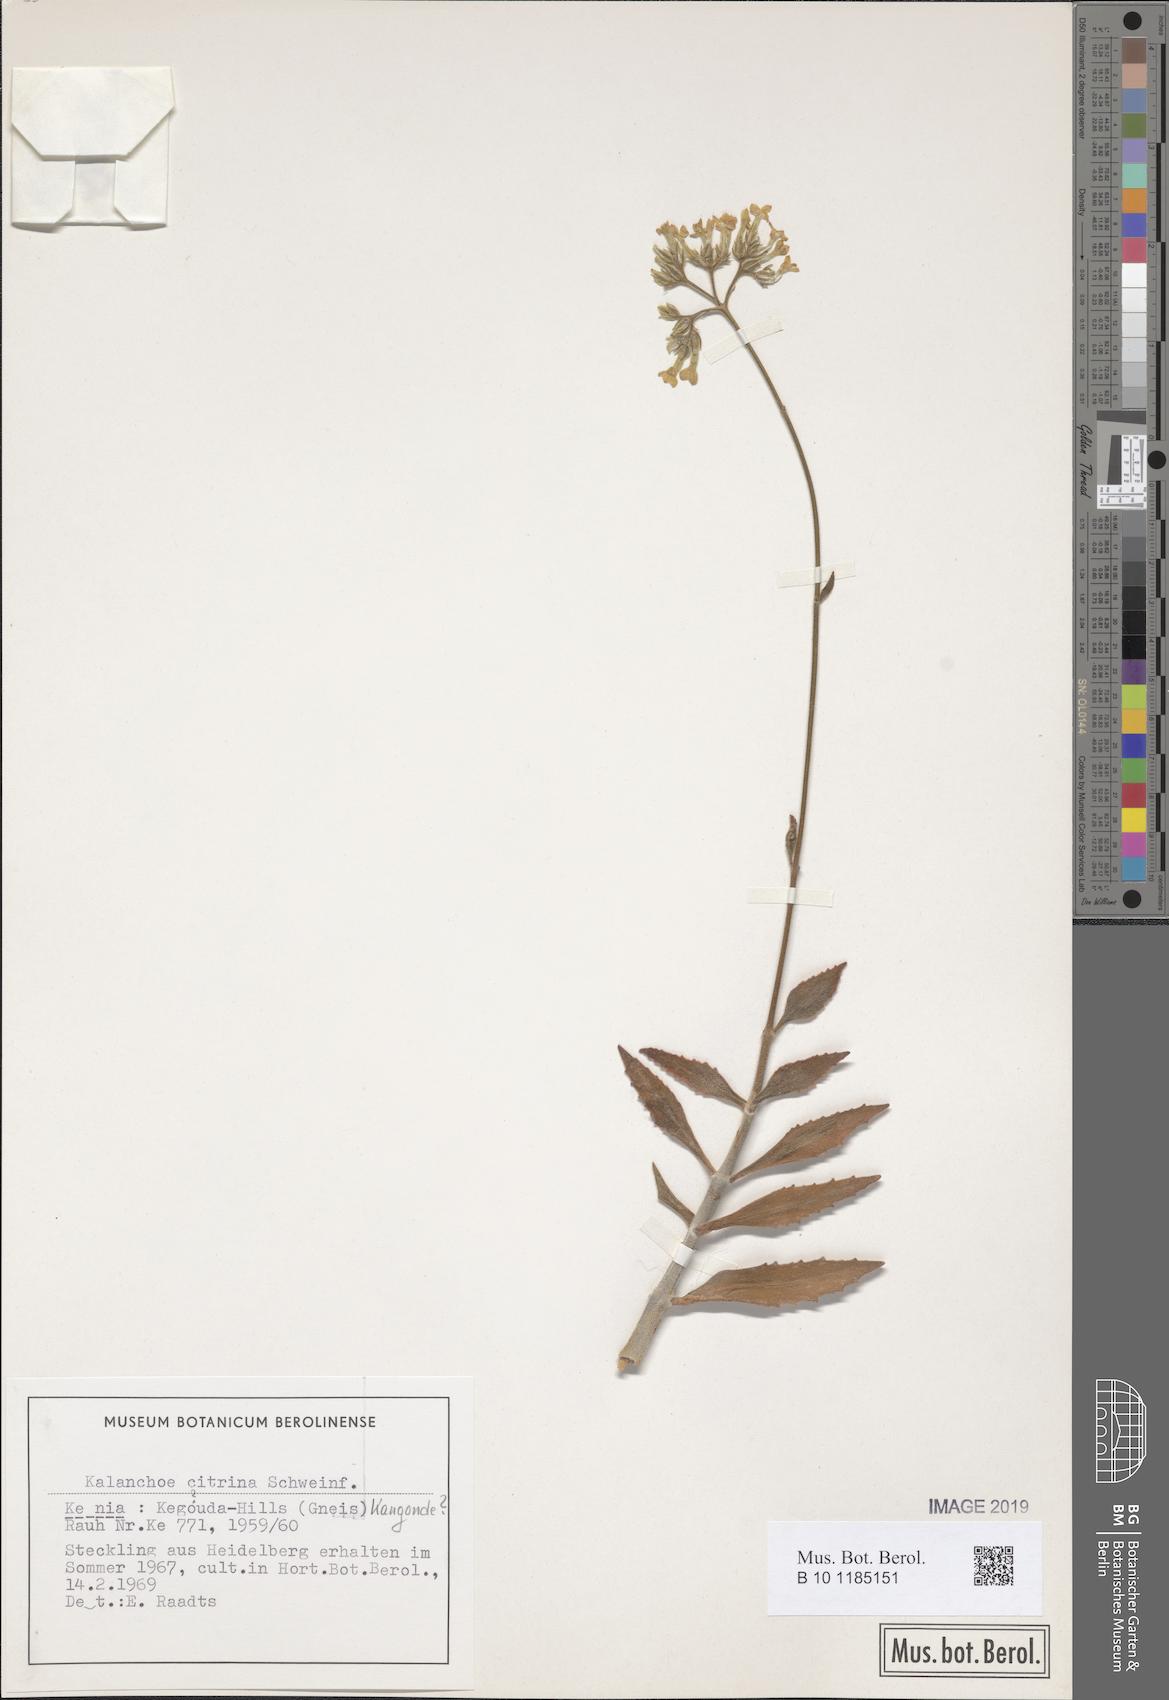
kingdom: Plantae
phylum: Tracheophyta
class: Magnoliopsida
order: Saxifragales
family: Crassulaceae
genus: Kalanchoe
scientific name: Kalanchoe citrina
